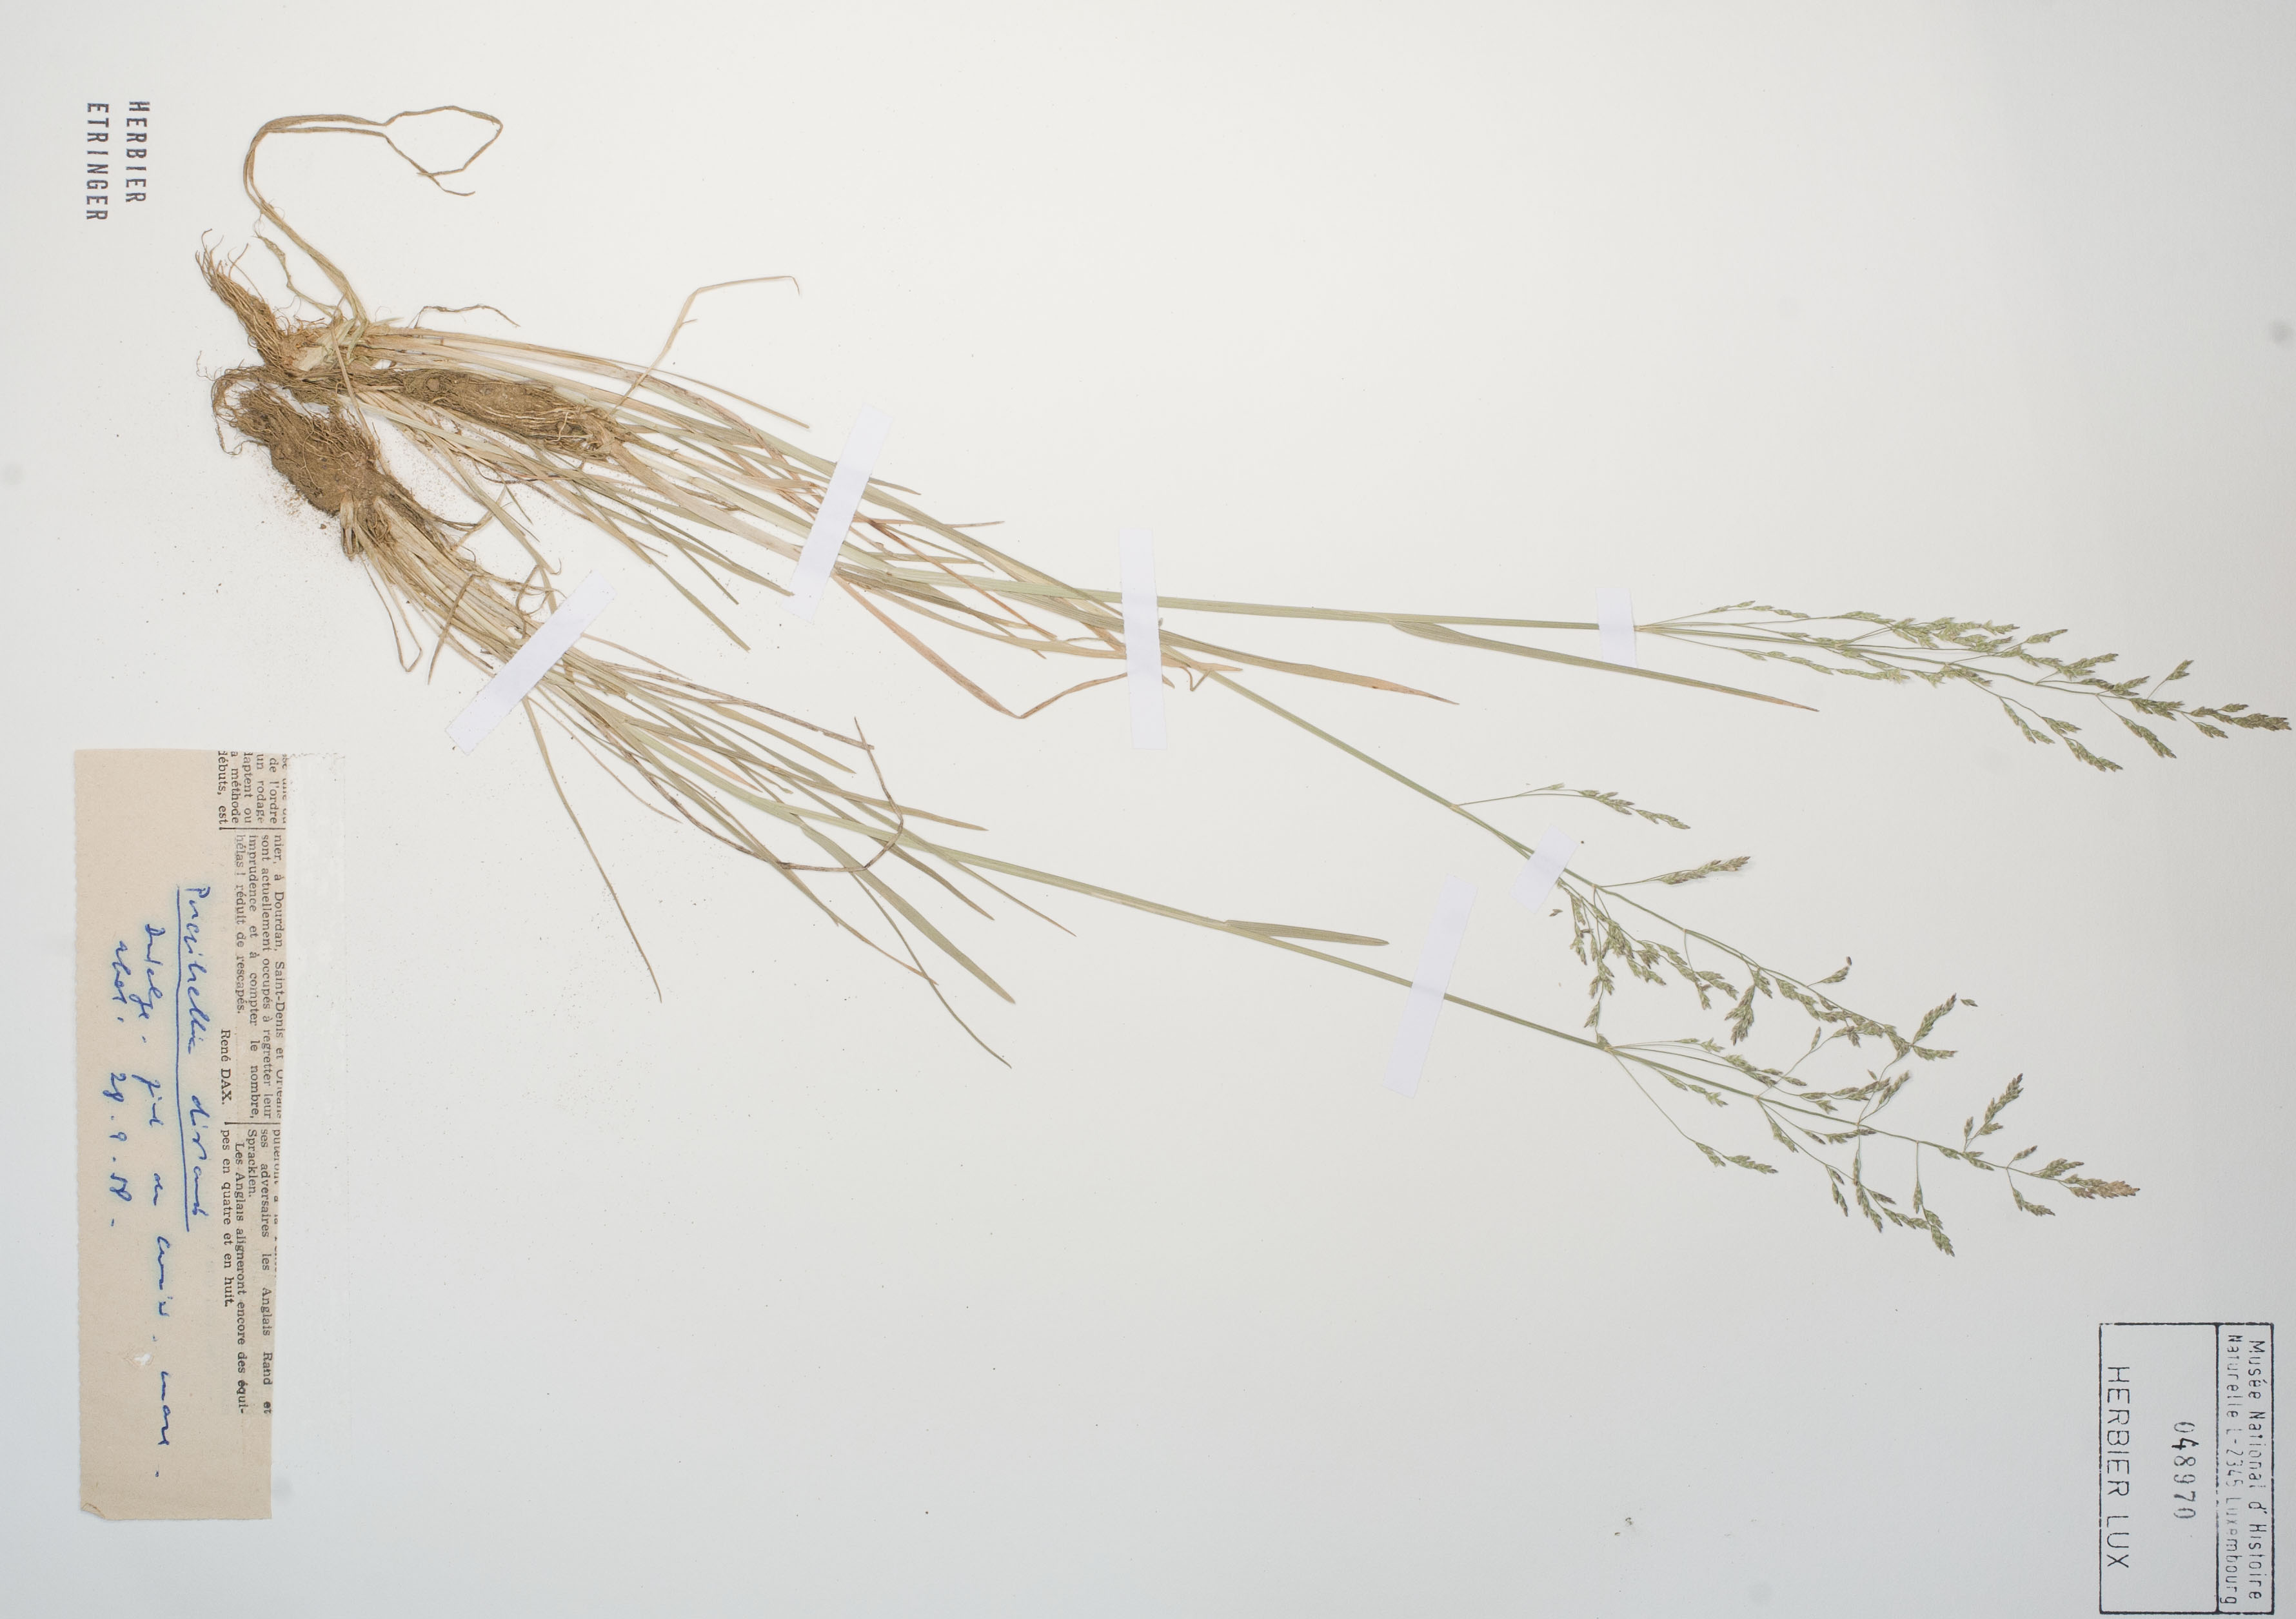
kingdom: Plantae
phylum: Tracheophyta
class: Liliopsida
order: Poales
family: Poaceae
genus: Puccinellia
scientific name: Puccinellia distans
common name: Weeping alkaligrass
